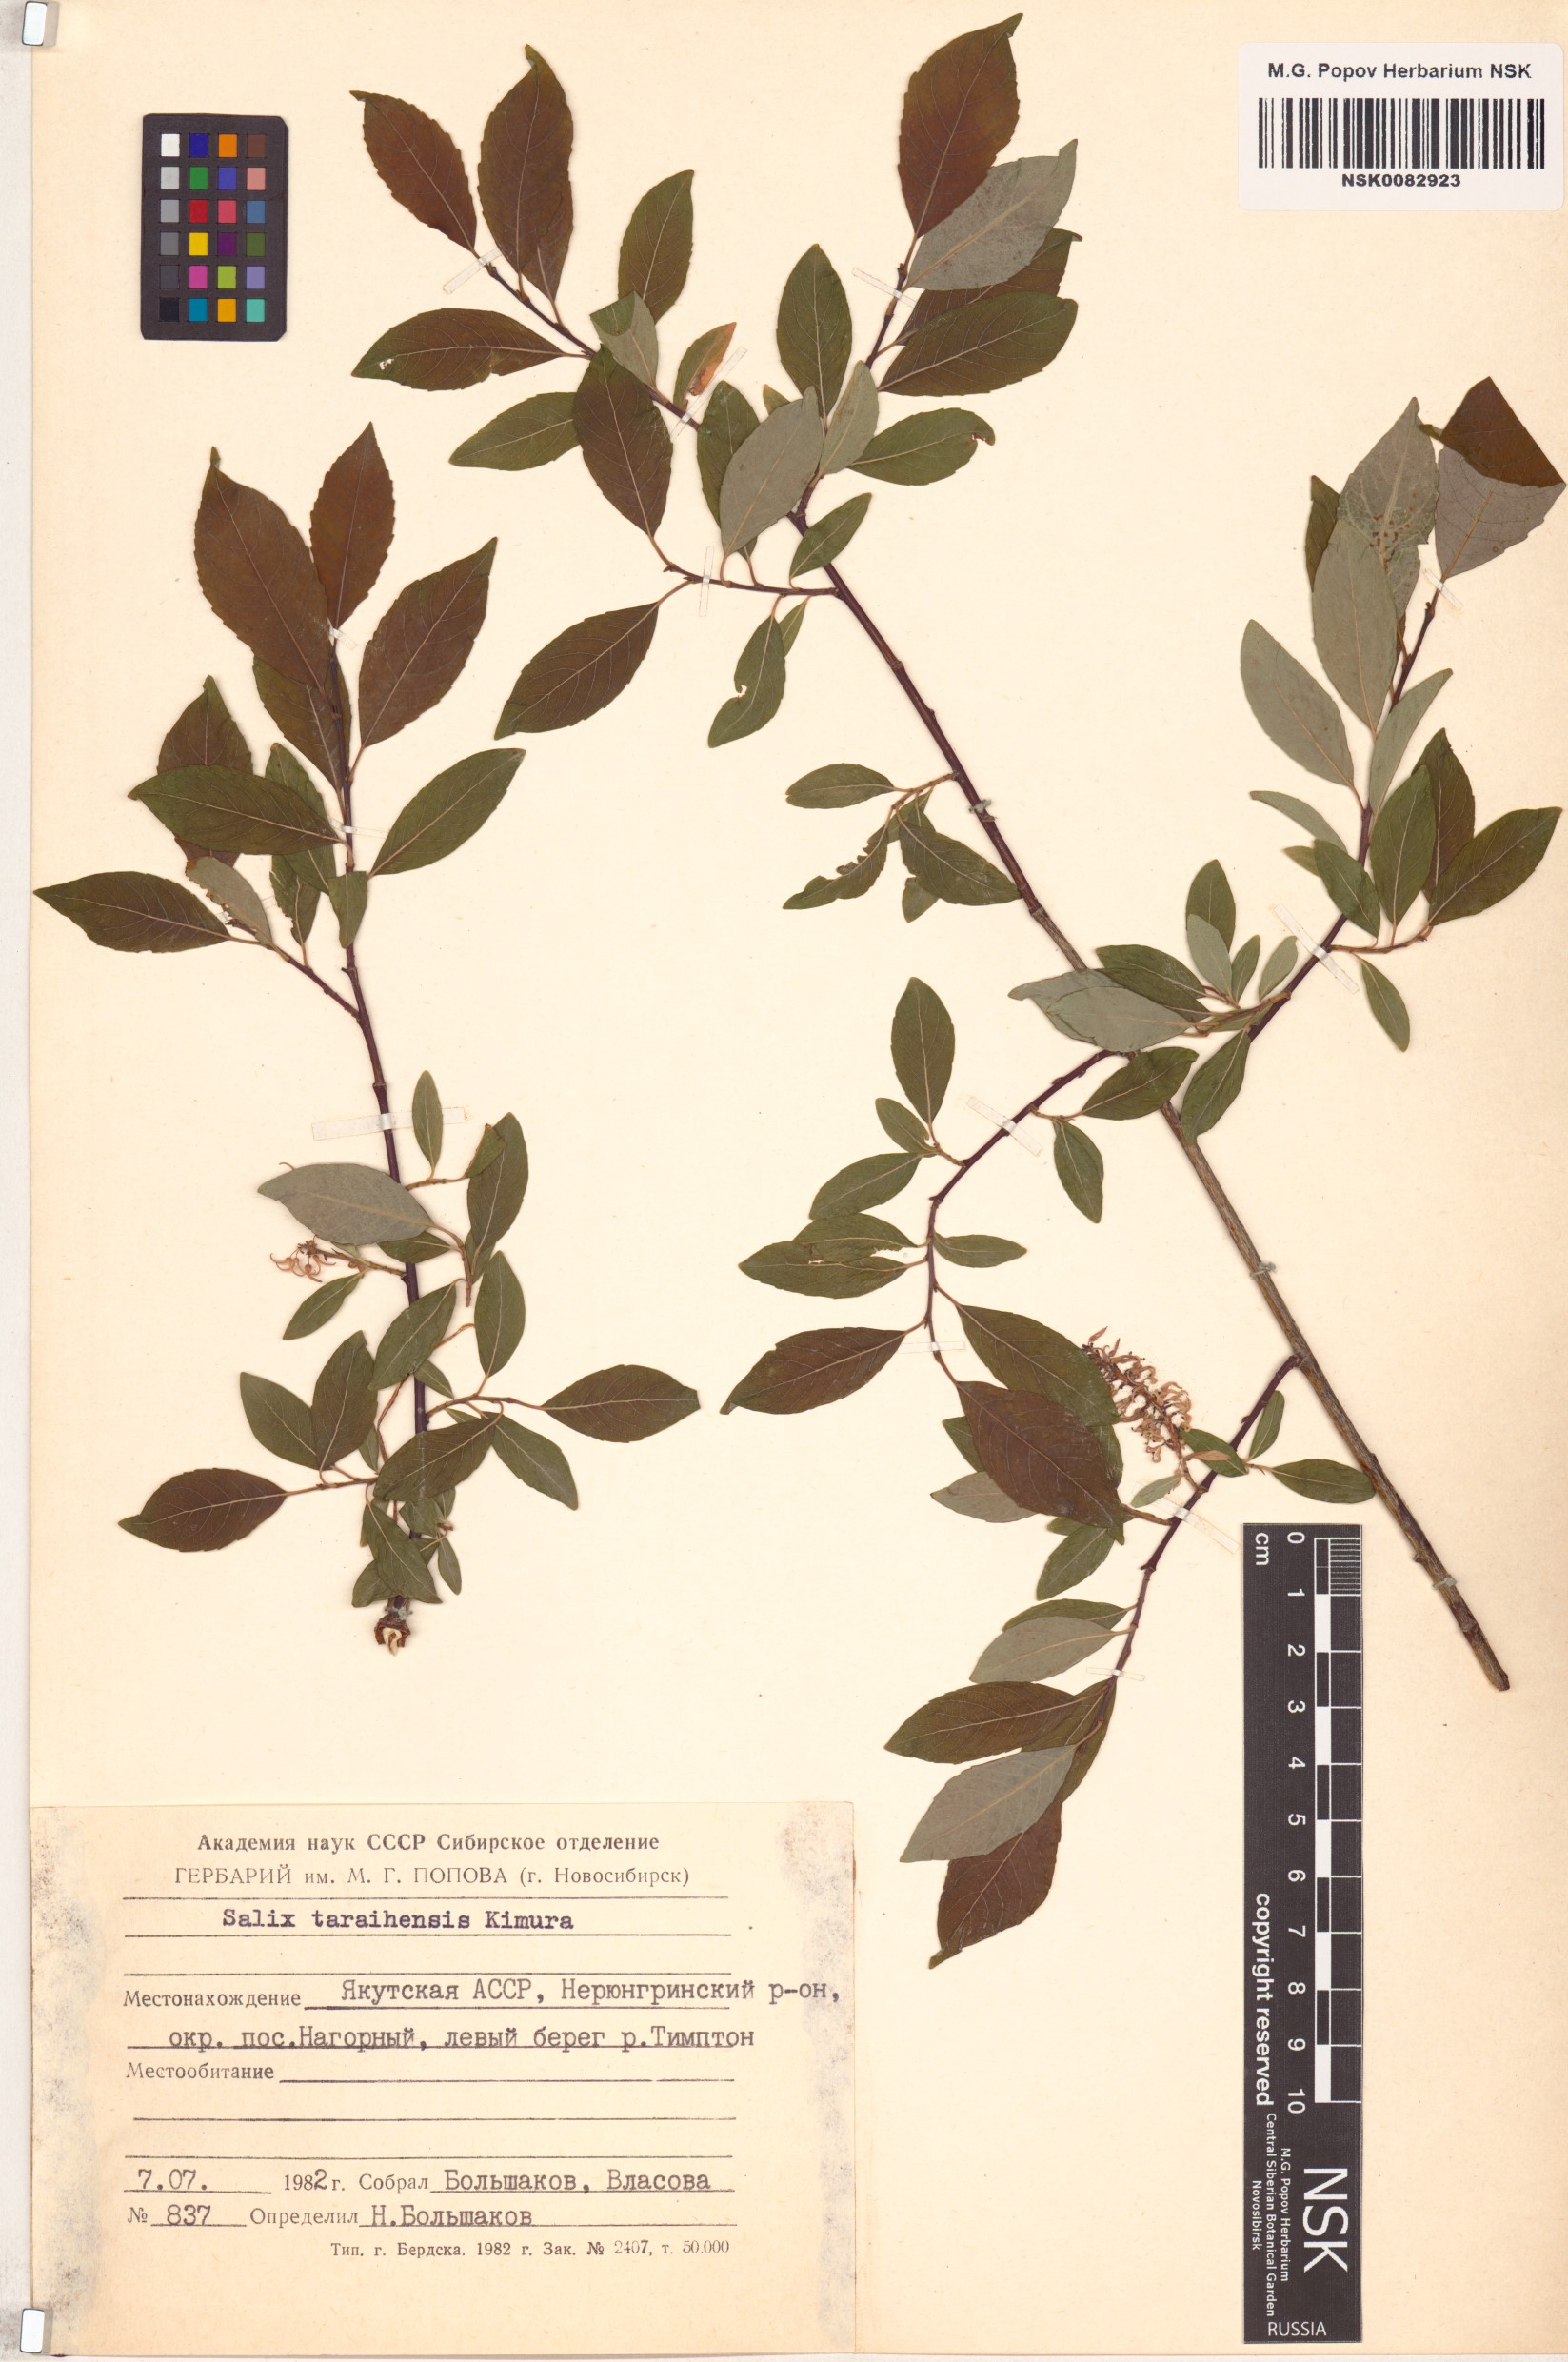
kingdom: Plantae
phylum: Tracheophyta
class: Magnoliopsida
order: Malpighiales
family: Salicaceae
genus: Salix
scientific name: Salix taraikensis
